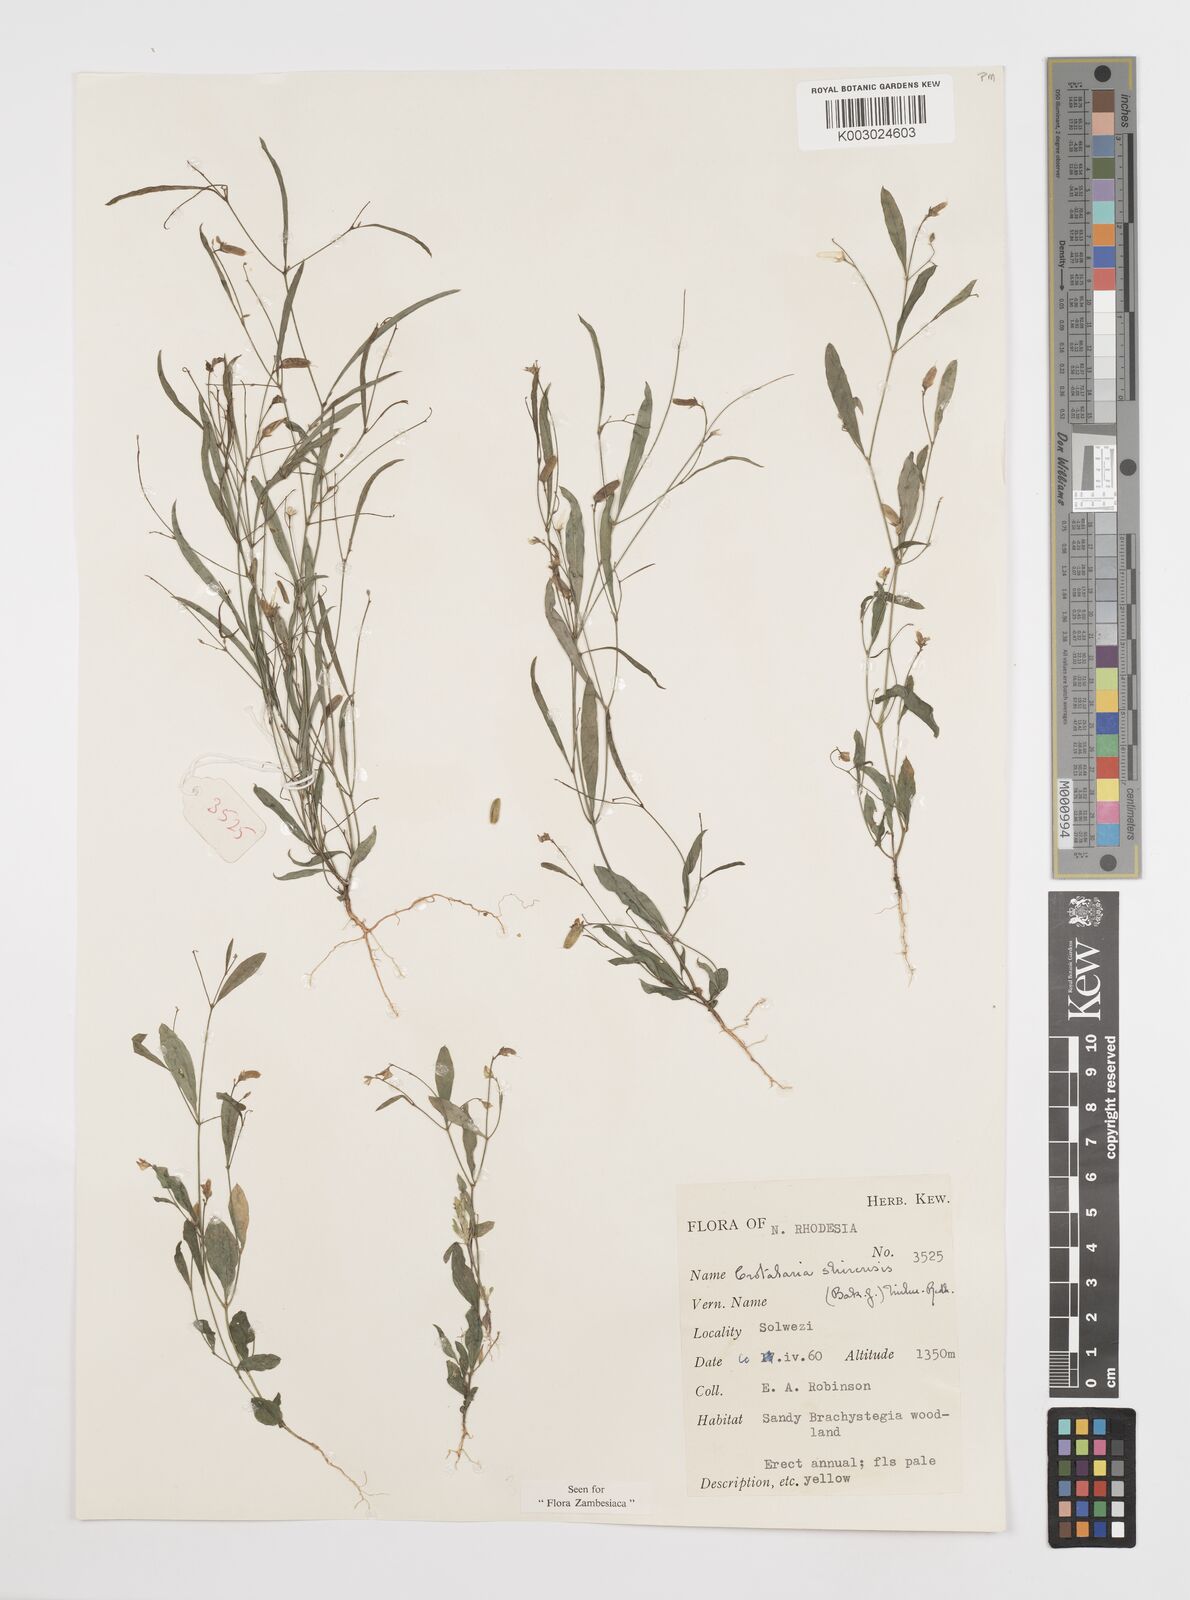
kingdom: Plantae
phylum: Tracheophyta
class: Magnoliopsida
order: Fabales
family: Fabaceae
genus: Crotalaria
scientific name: Crotalaria shirensis
